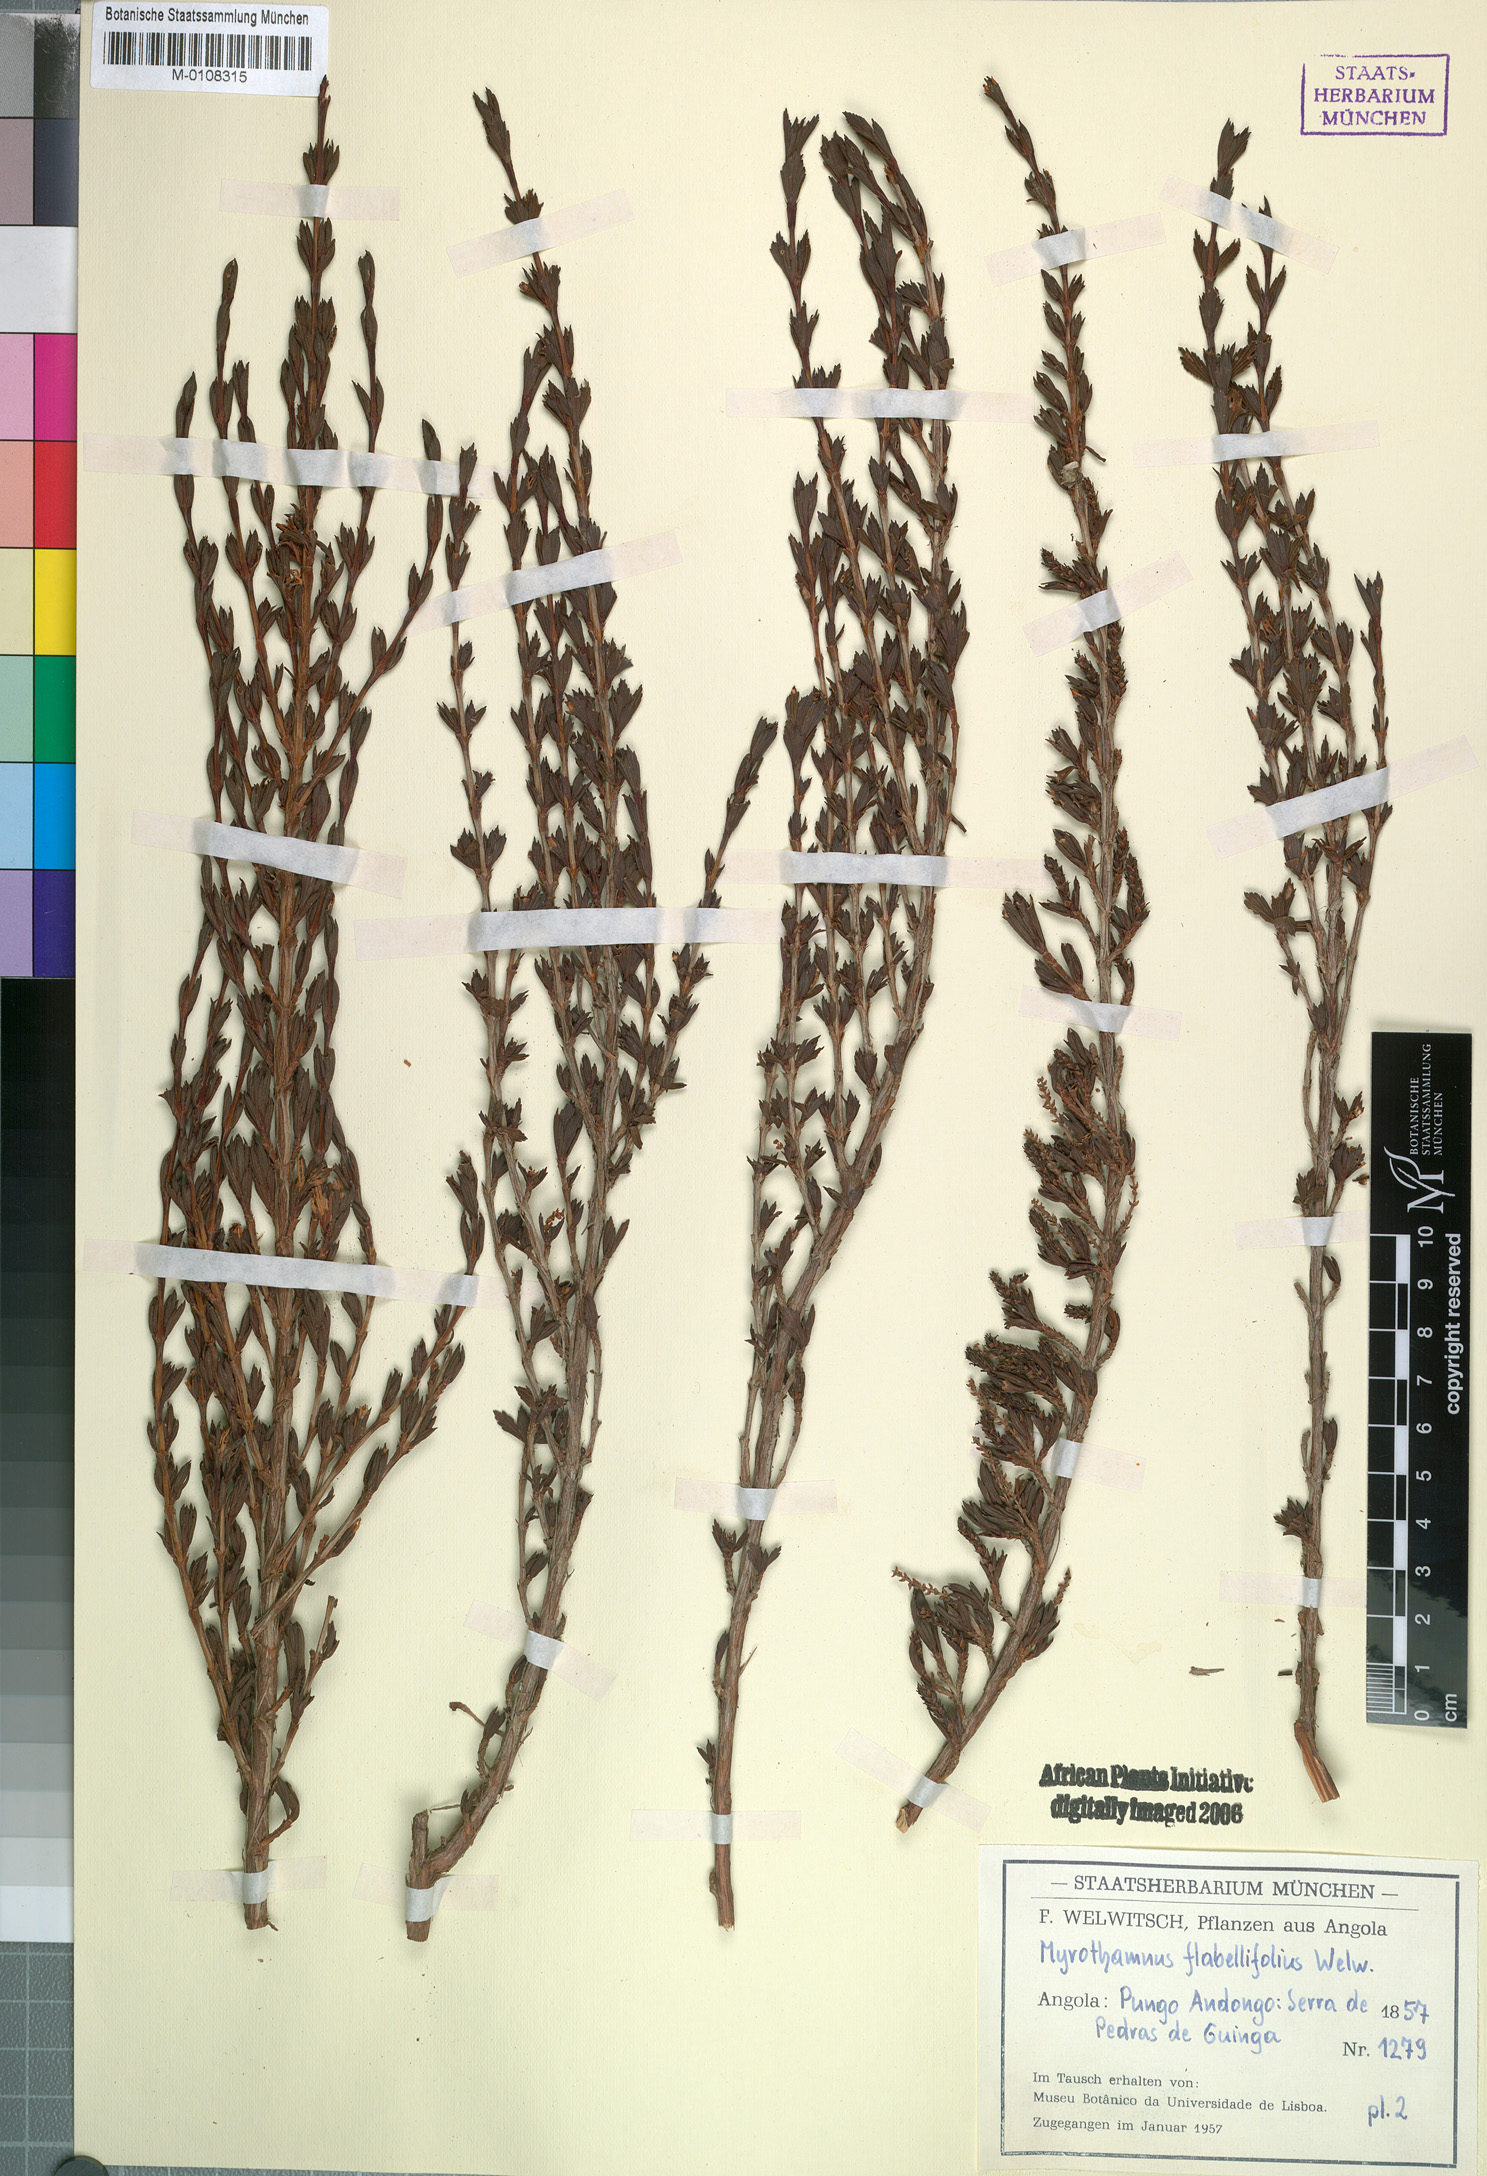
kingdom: Plantae
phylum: Tracheophyta
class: Magnoliopsida
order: Gunnerales
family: Myrothamnaceae
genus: Myrothamnus
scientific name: Myrothamnus flabellifolius
